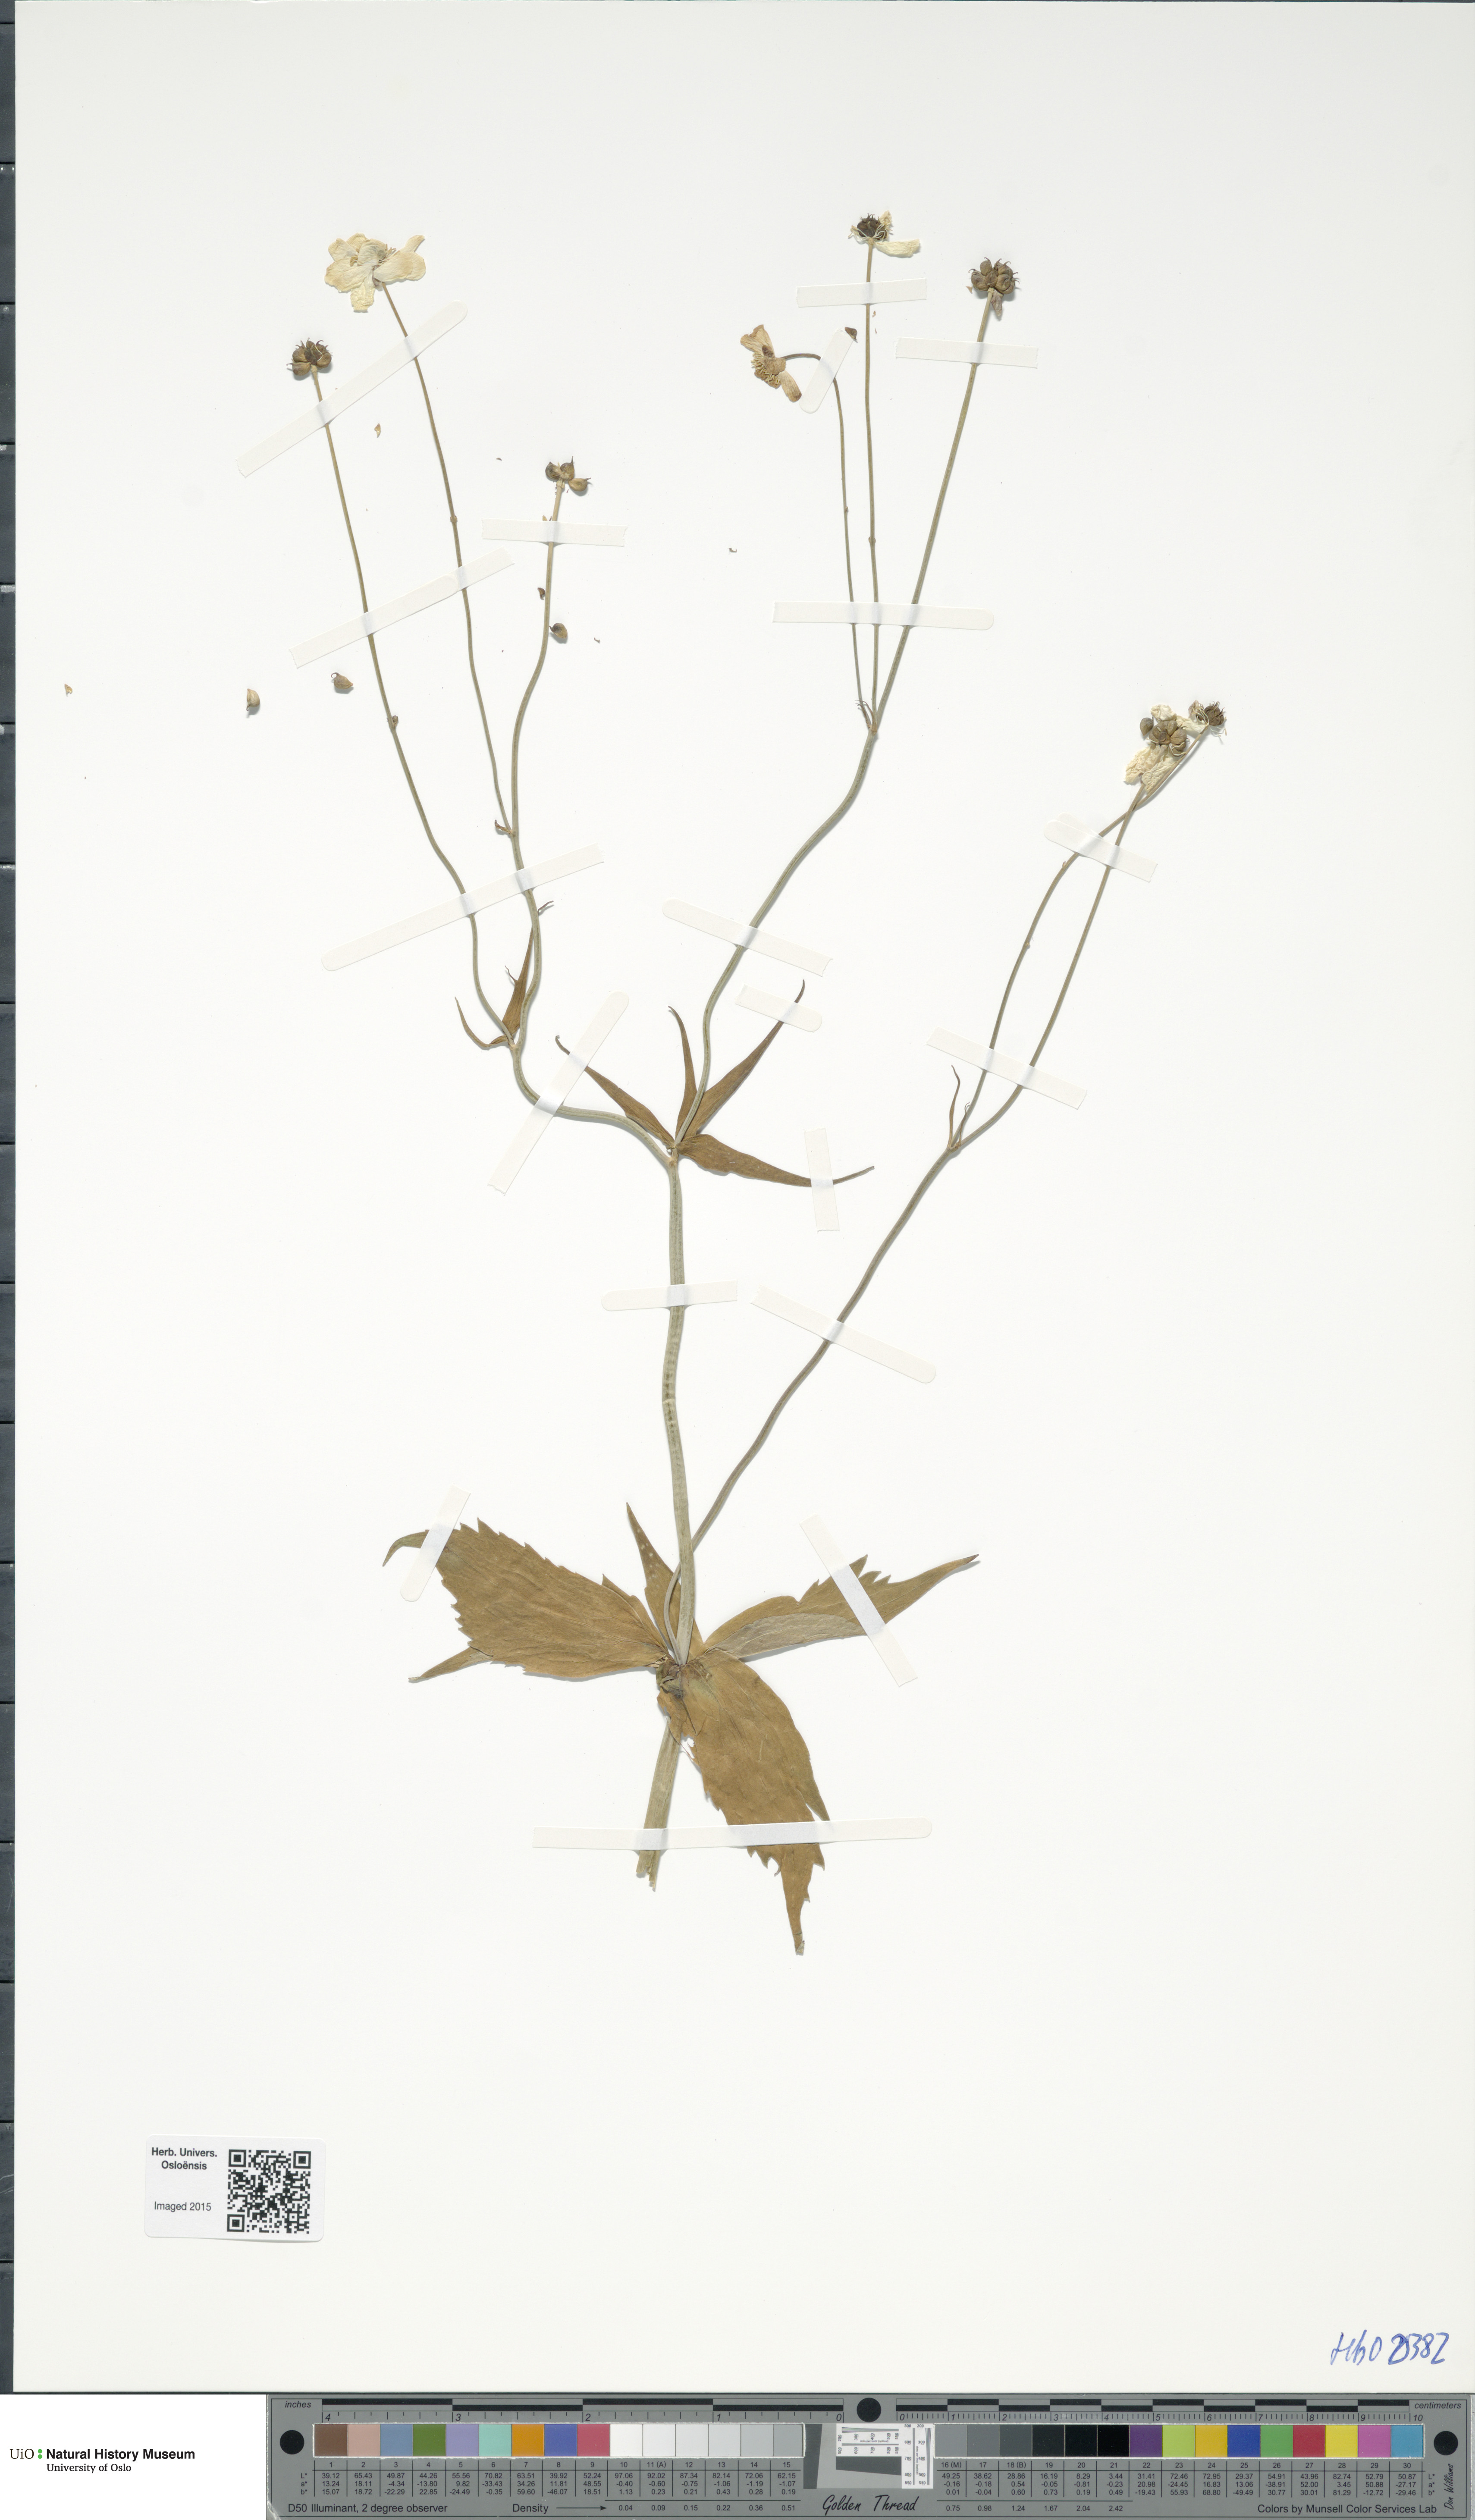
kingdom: Plantae
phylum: Tracheophyta
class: Magnoliopsida
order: Ranunculales
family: Ranunculaceae
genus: Ranunculus
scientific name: Ranunculus platanifolius
